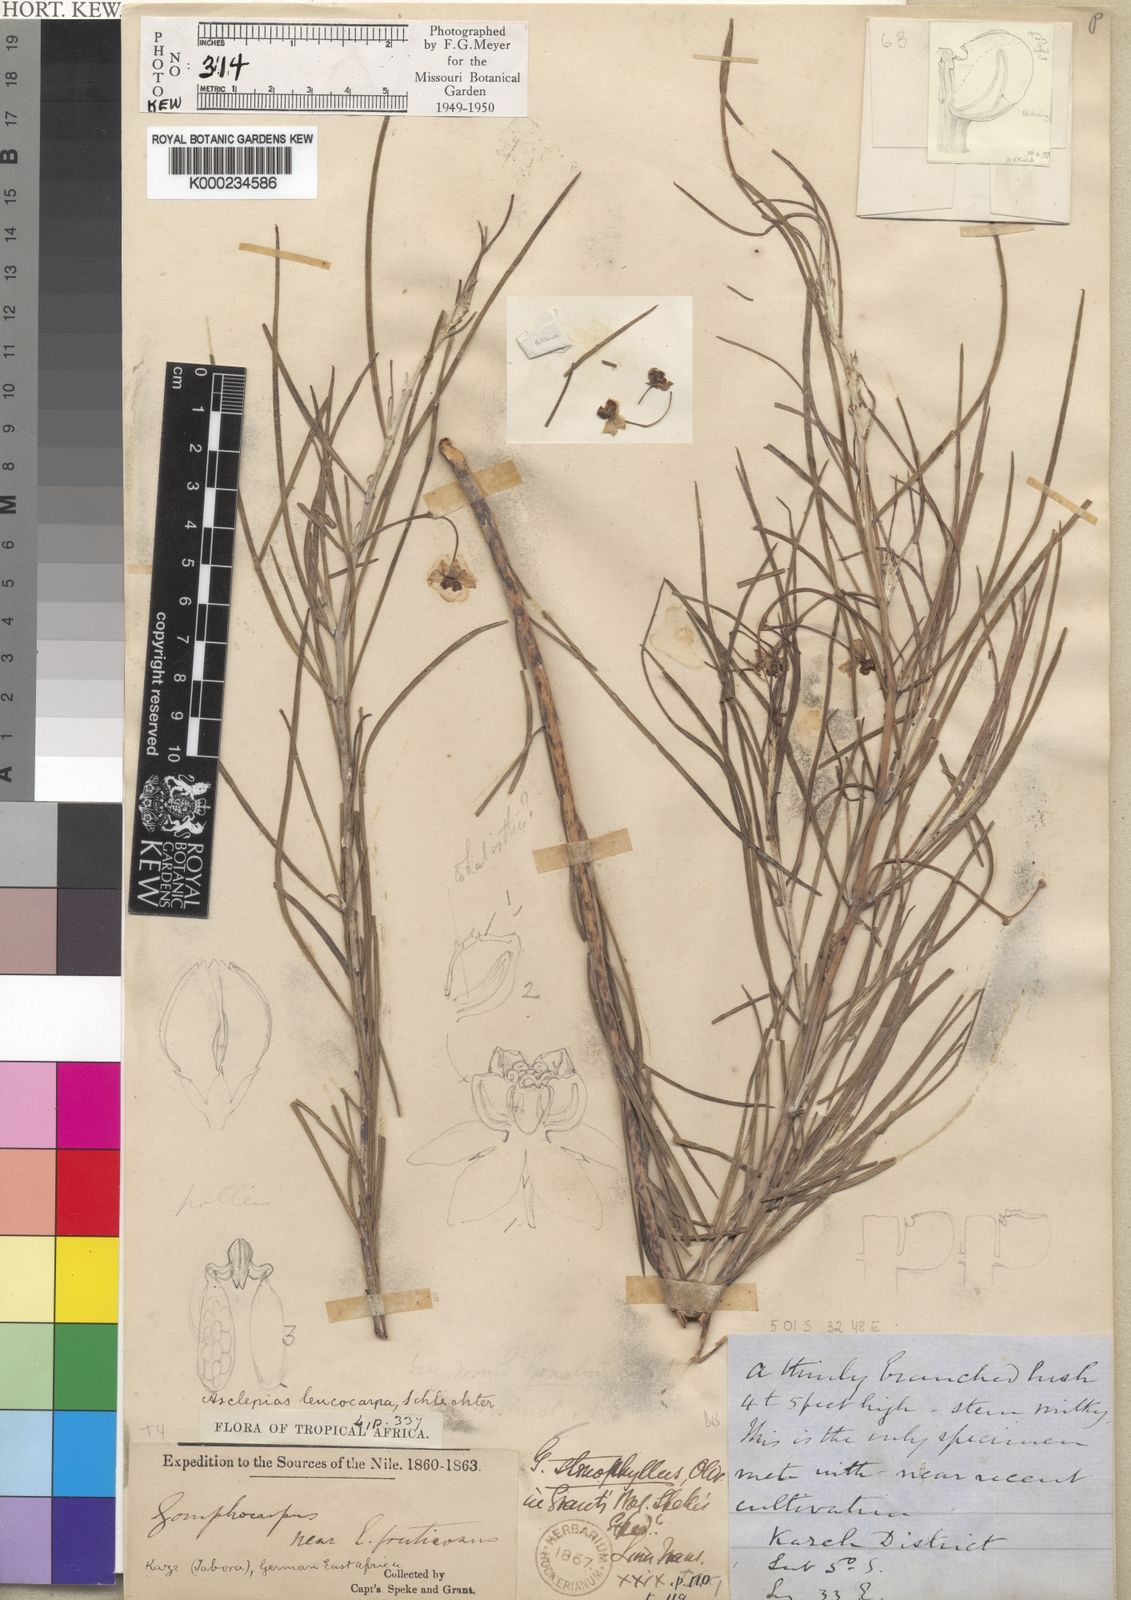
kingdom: Plantae
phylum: Tracheophyta
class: Magnoliopsida
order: Gentianales
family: Apocynaceae
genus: Gomphocarpus
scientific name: Gomphocarpus stenophyllus
